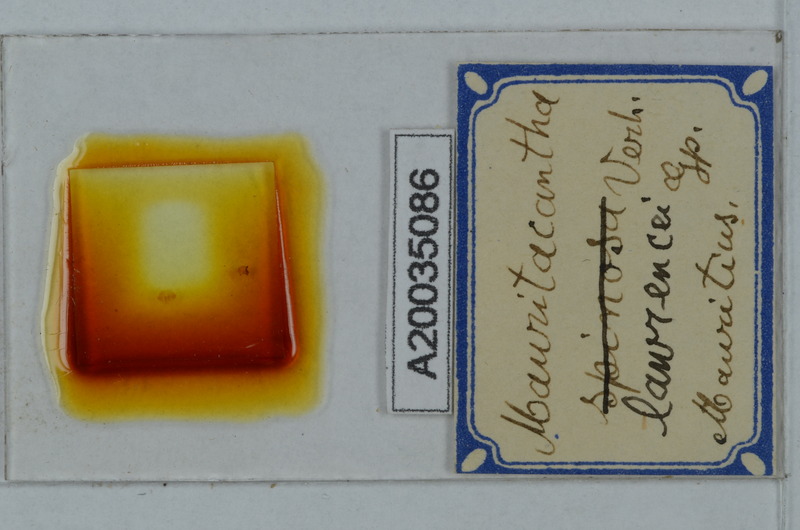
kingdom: Animalia
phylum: Arthropoda
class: Diplopoda
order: Polydesmida
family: Trichopolydesmidae
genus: Mauritacantha
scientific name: Mauritacantha lawrencei
